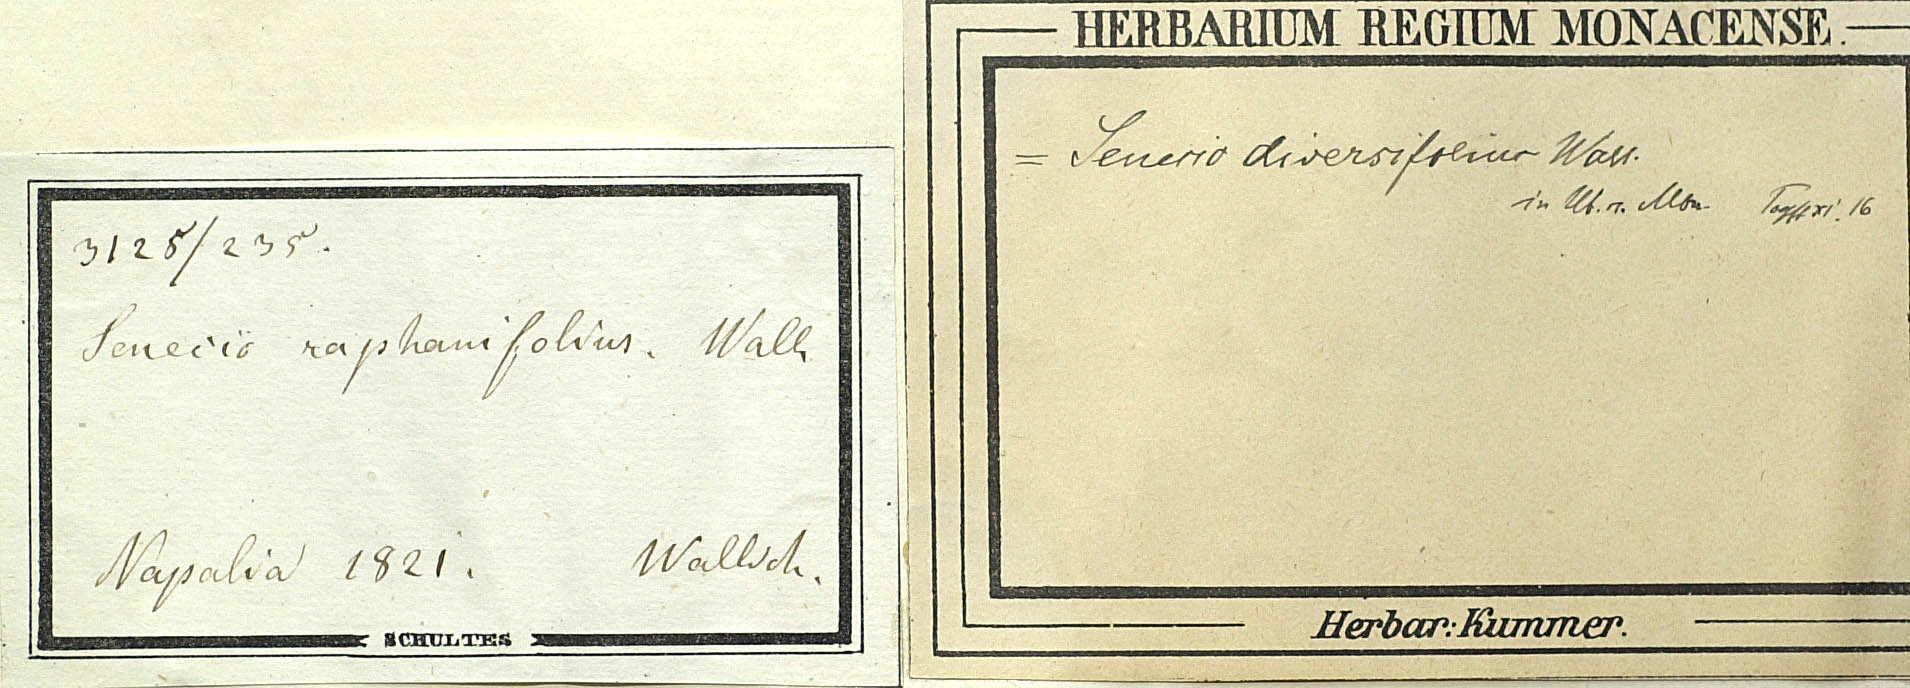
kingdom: Plantae
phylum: Tracheophyta
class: Magnoliopsida
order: Asterales
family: Asteraceae
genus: Jacobaea
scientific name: Jacobaea raphanifolia
